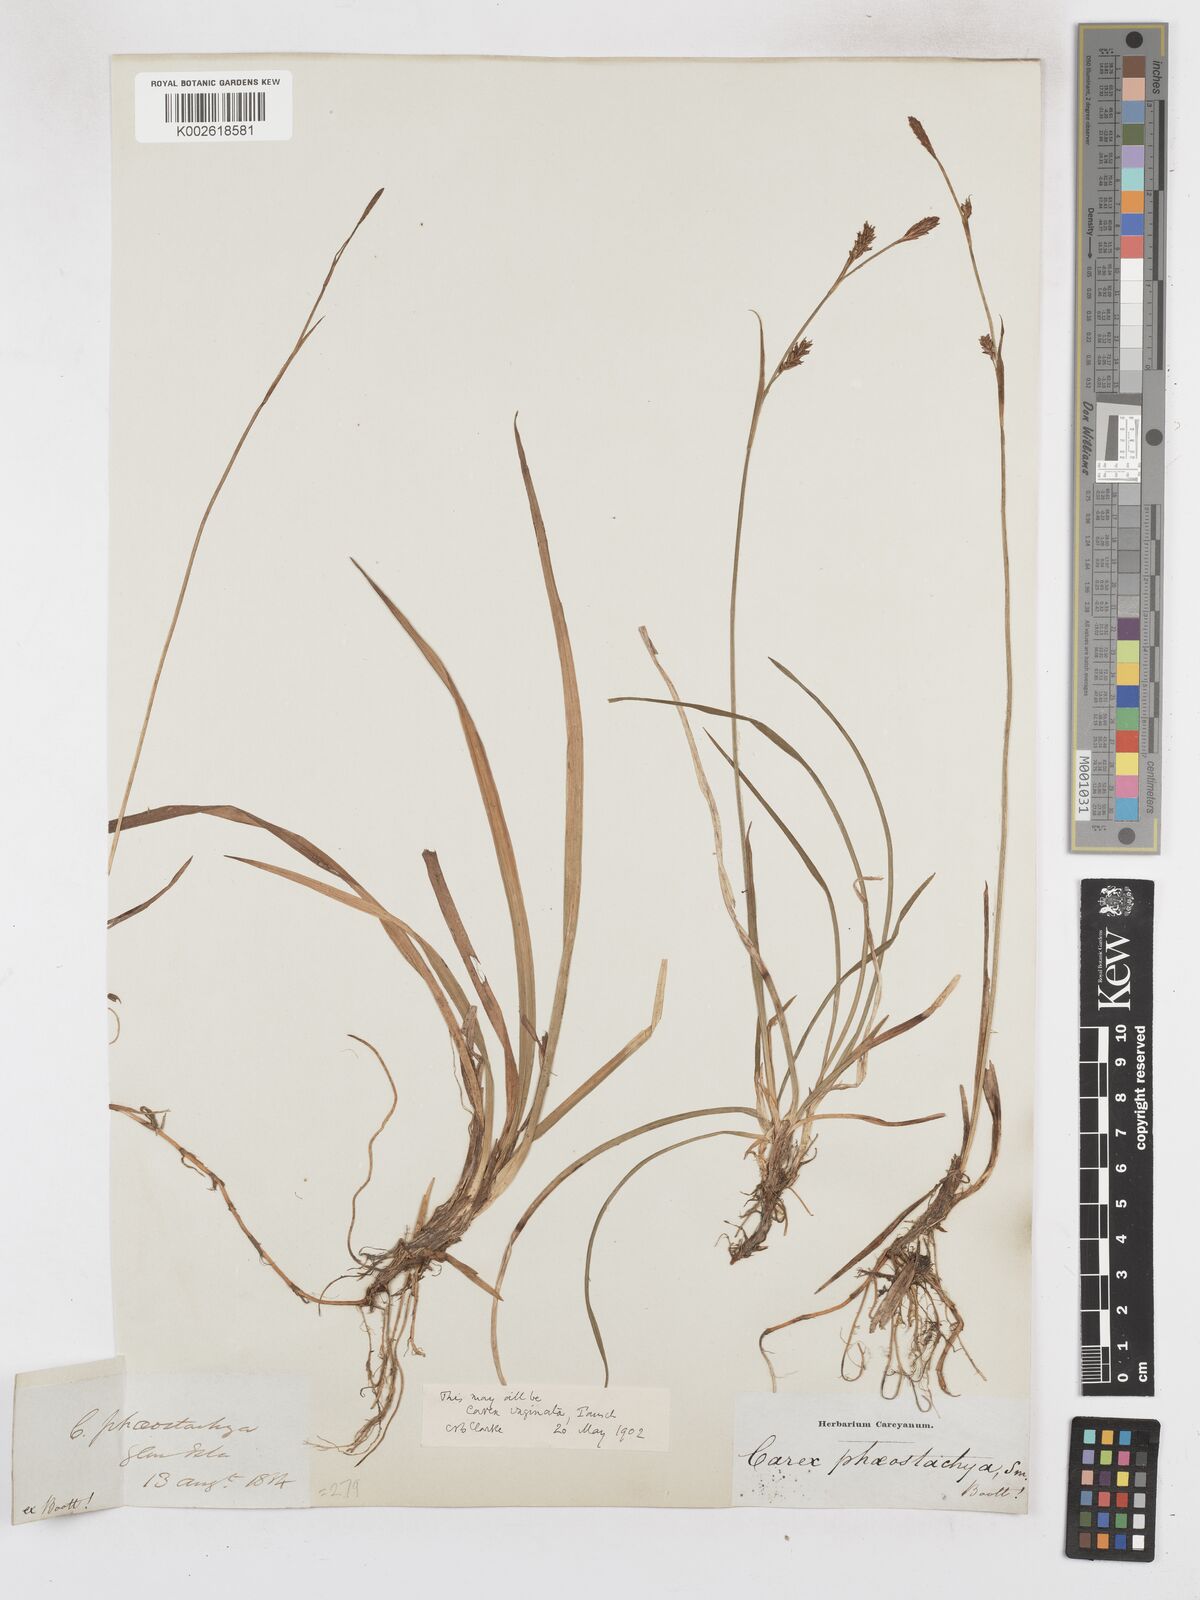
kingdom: Plantae
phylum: Tracheophyta
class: Liliopsida
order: Poales
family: Cyperaceae
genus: Carex
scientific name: Carex vaginata
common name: Sheathed sedge
